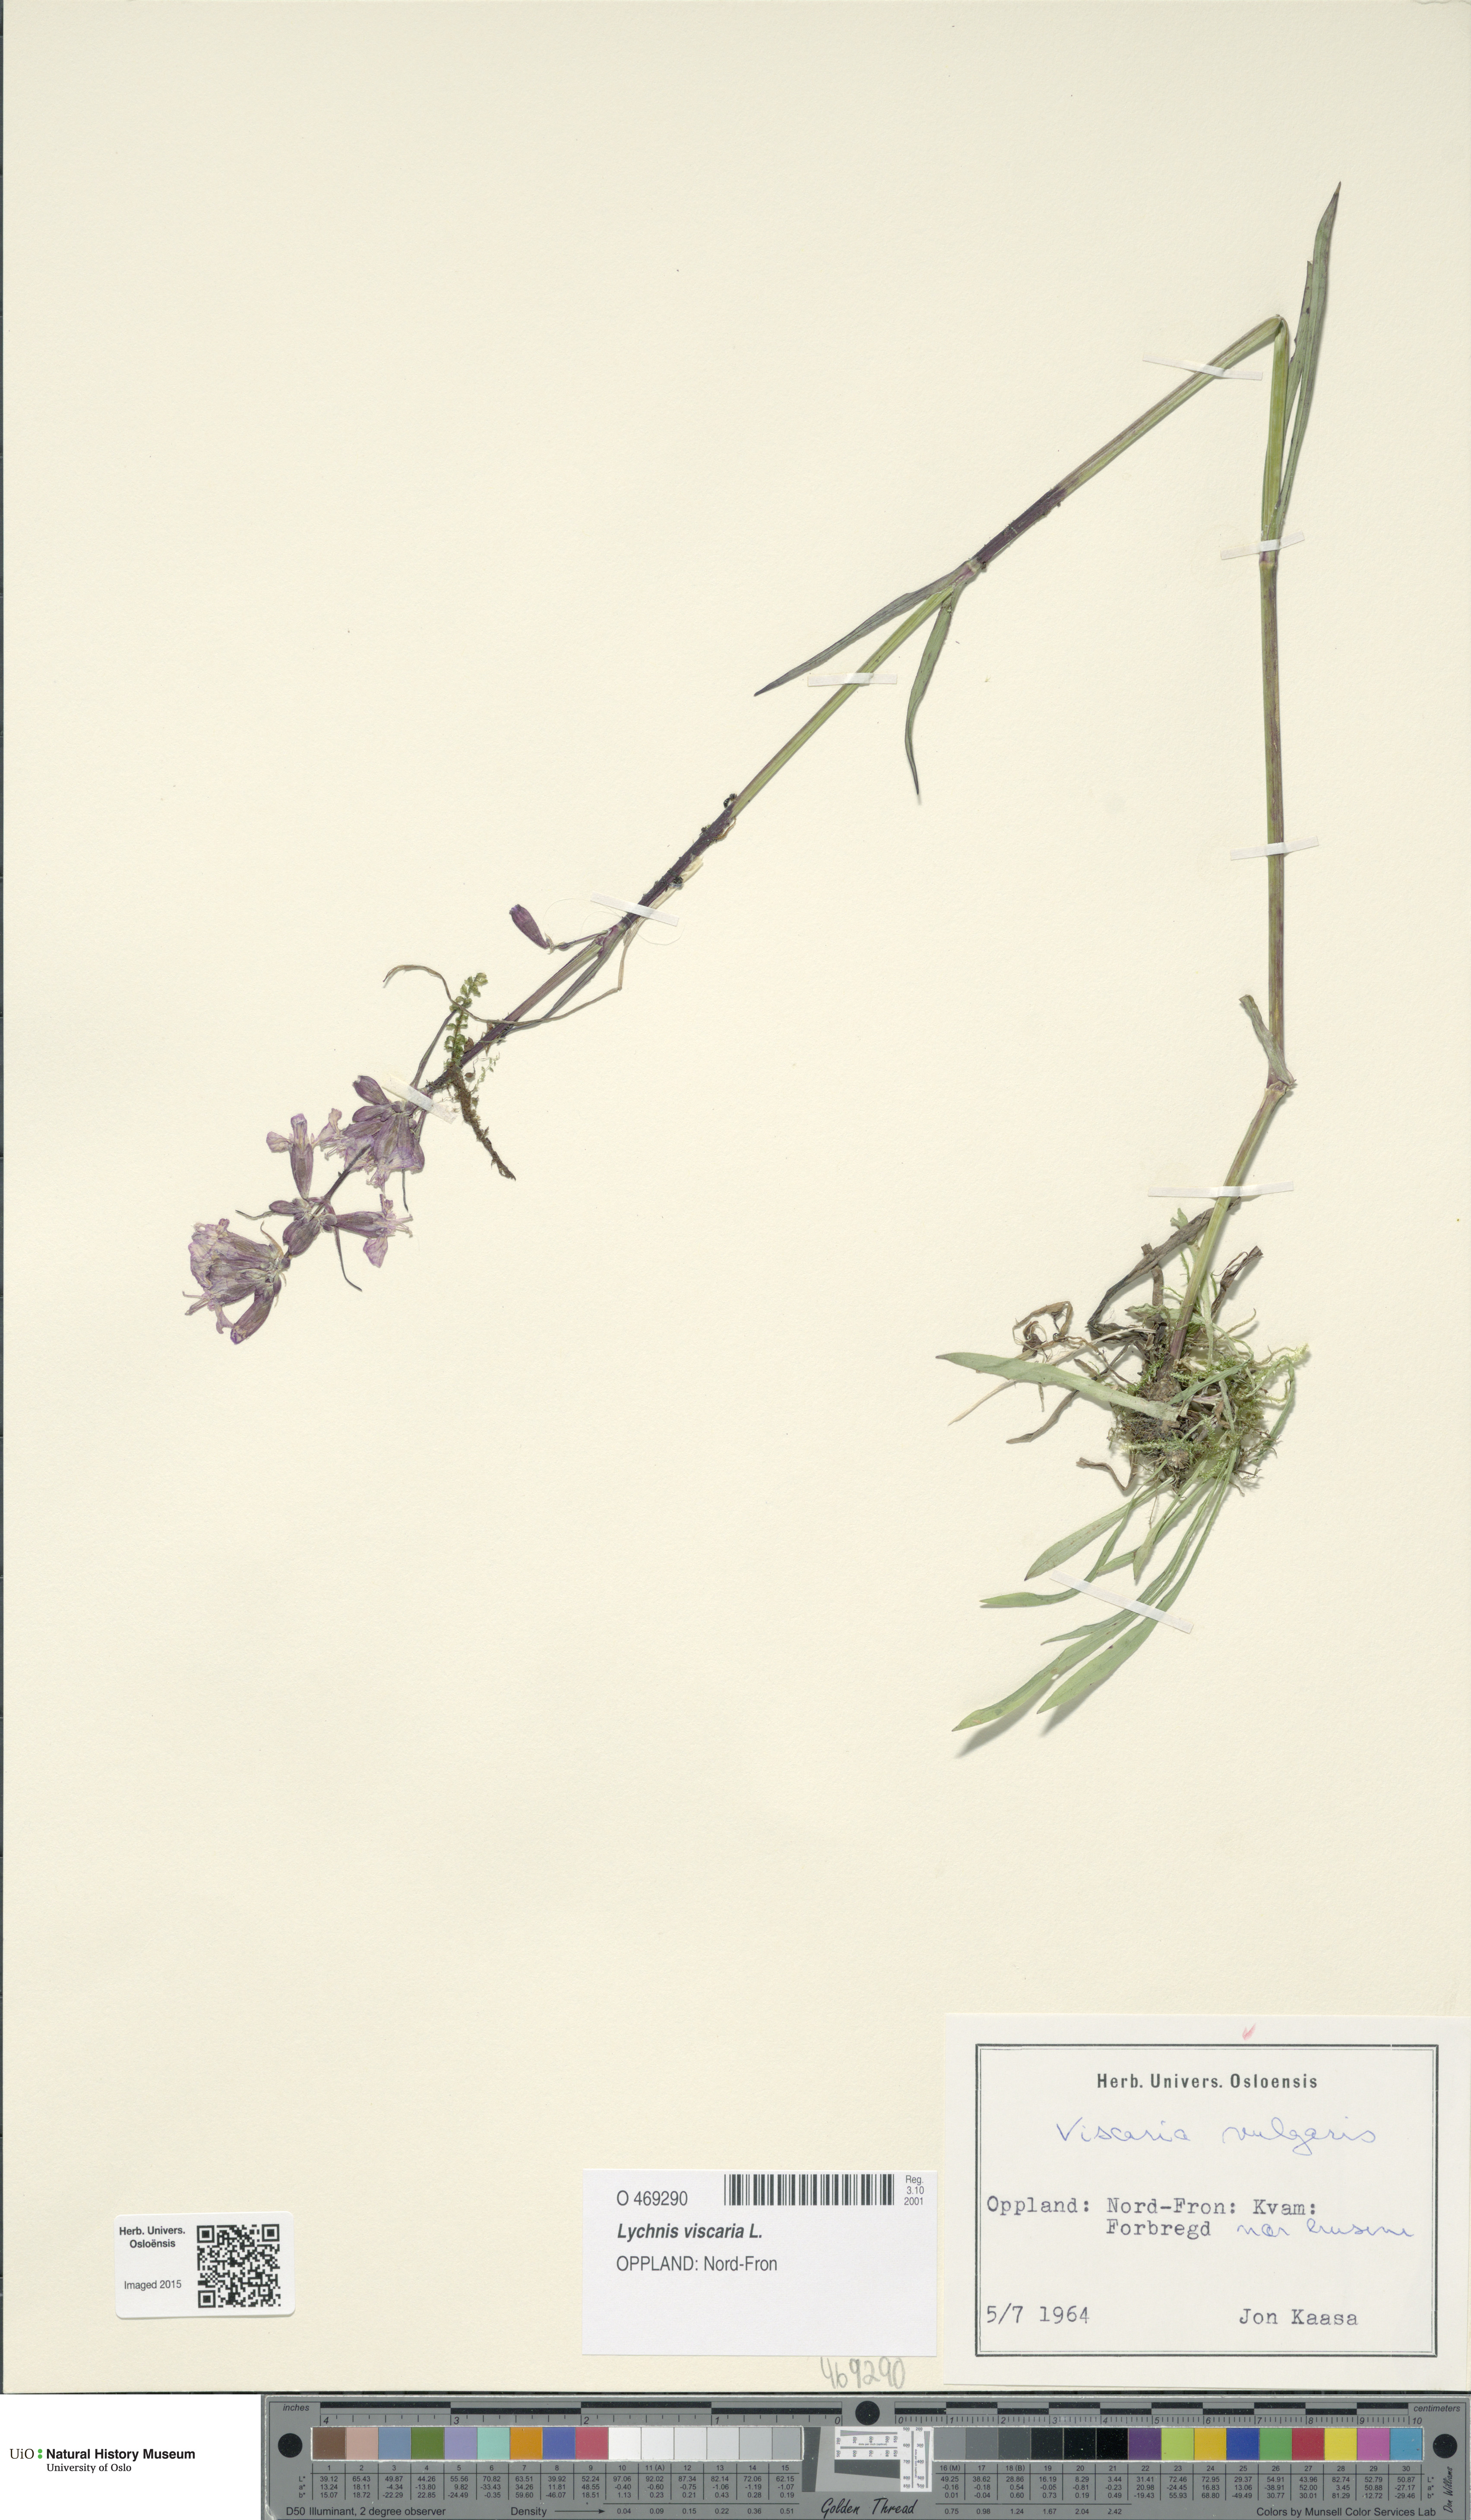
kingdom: Plantae
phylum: Tracheophyta
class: Magnoliopsida
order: Caryophyllales
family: Caryophyllaceae
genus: Viscaria
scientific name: Viscaria vulgaris
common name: Clammy campion
